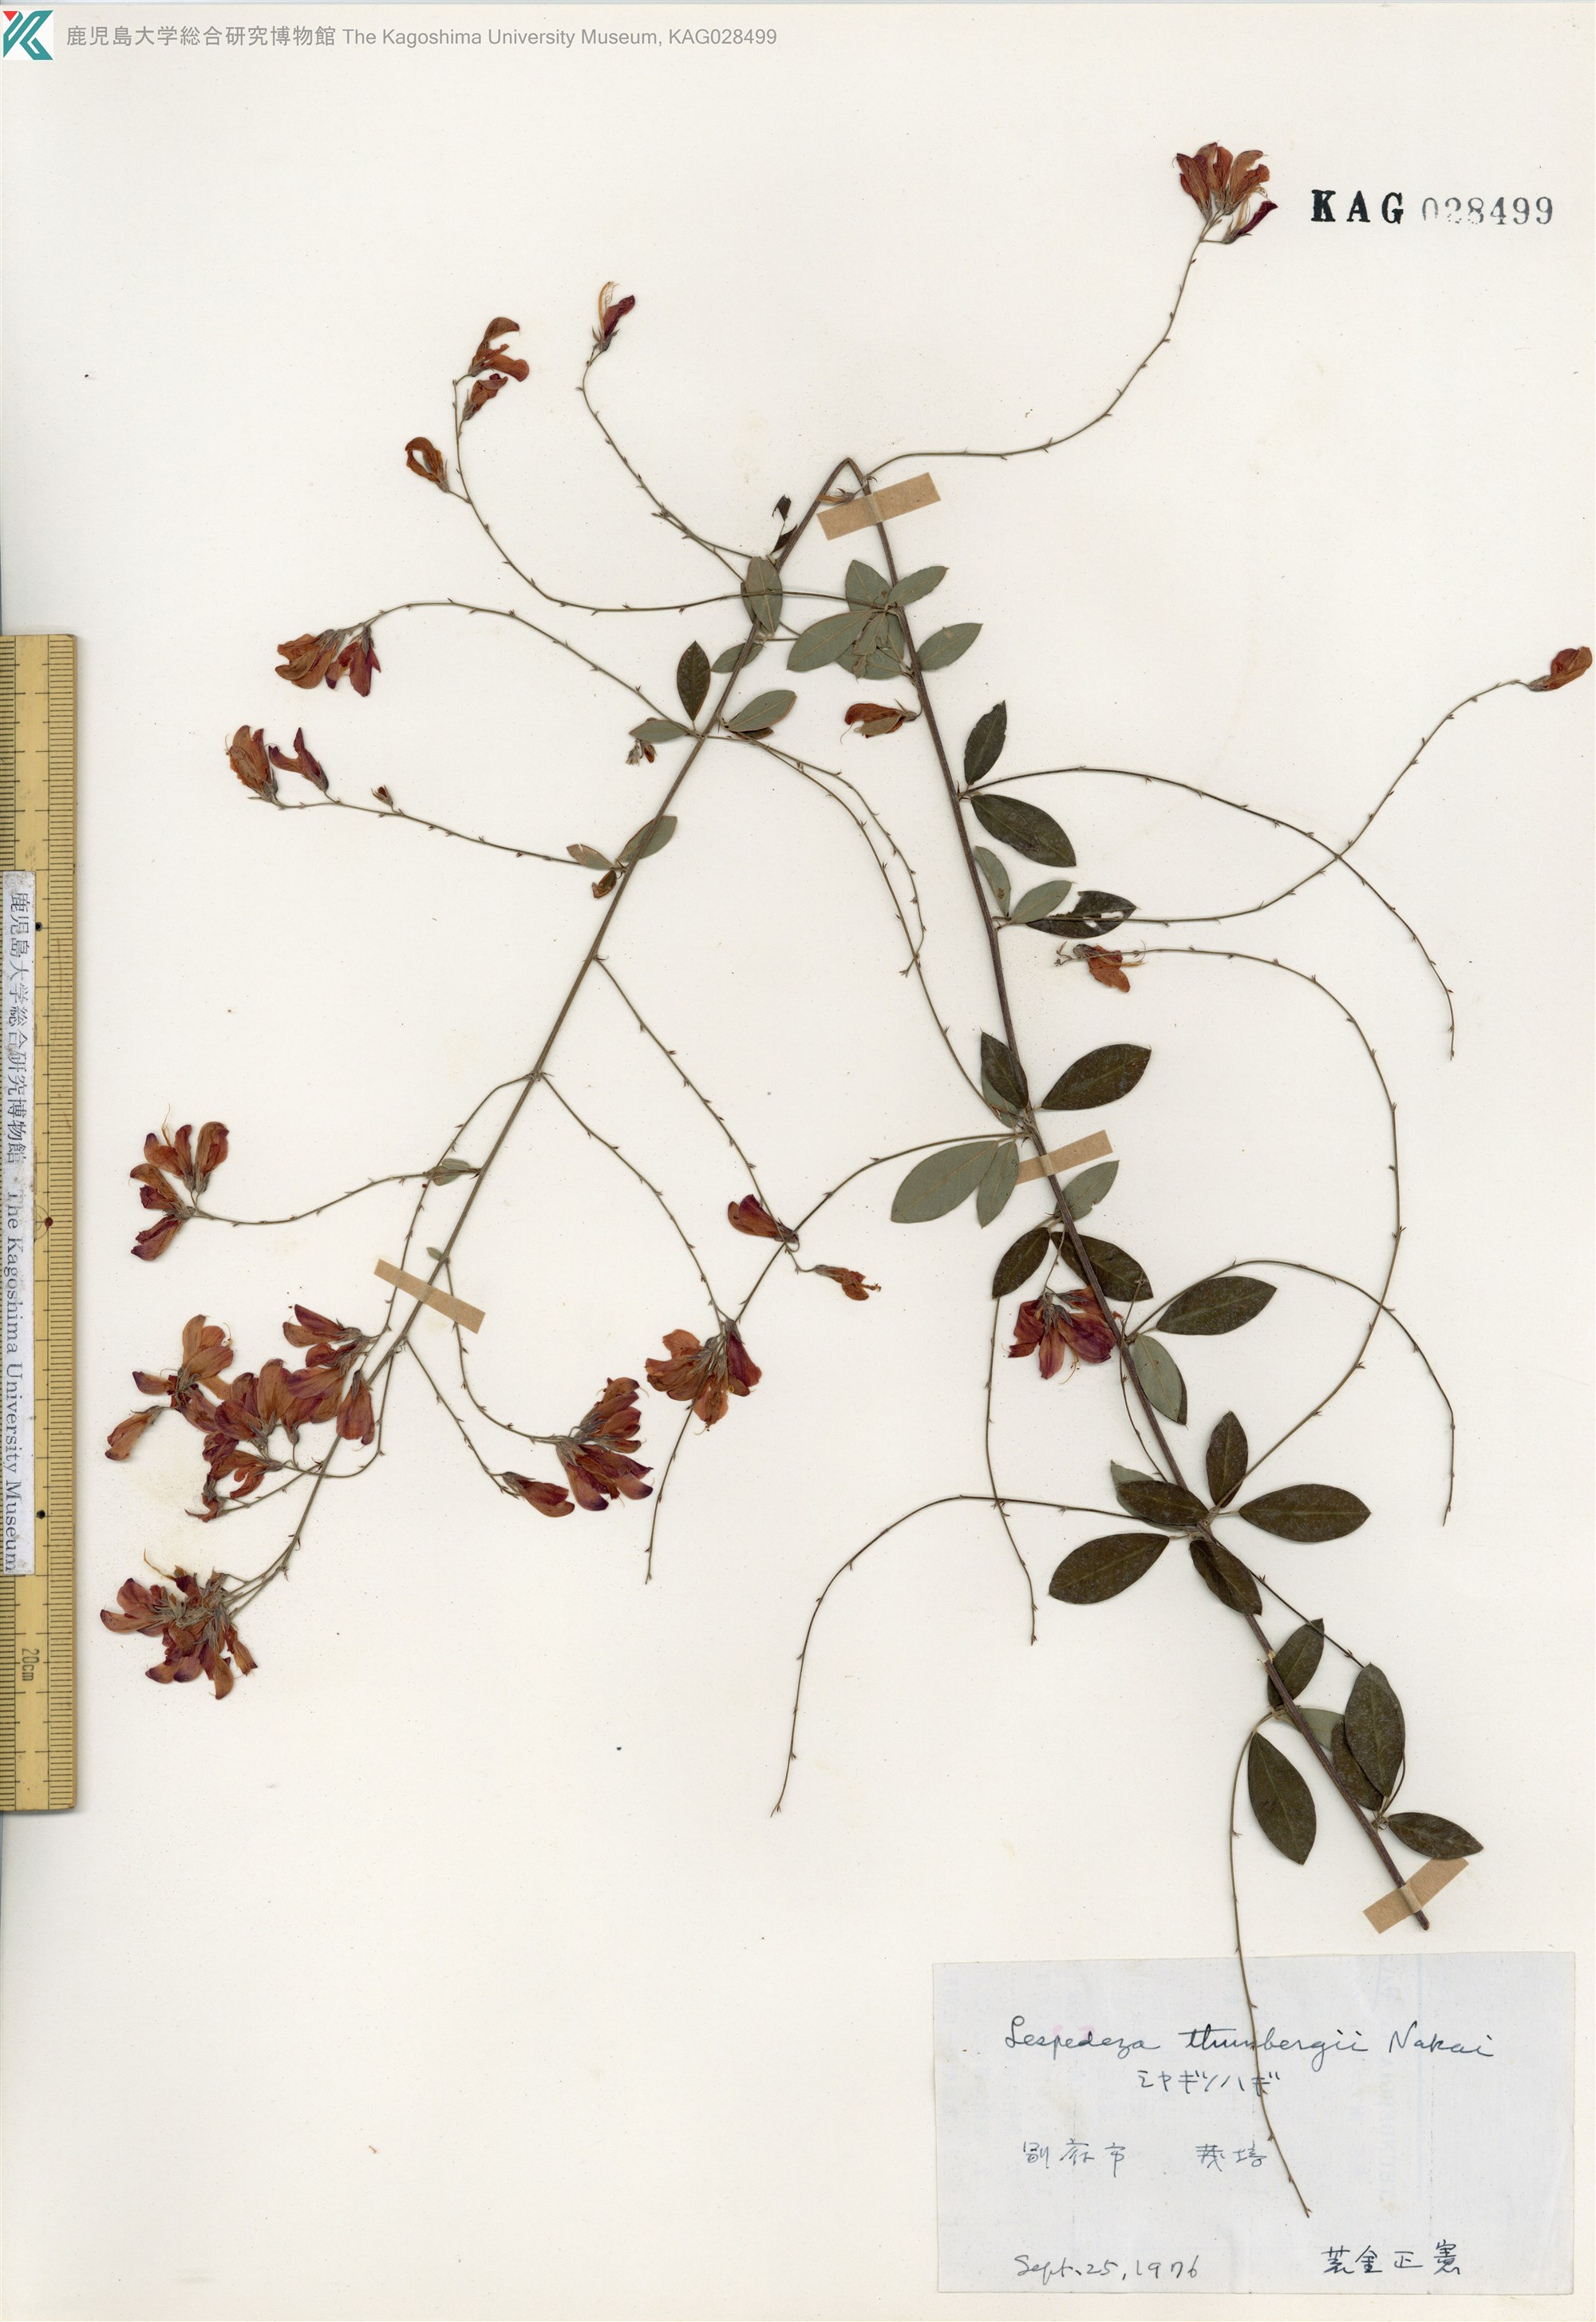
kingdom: Plantae
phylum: Tracheophyta
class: Magnoliopsida
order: Fabales
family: Fabaceae
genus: Lespedeza
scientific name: Lespedeza thunbergii
